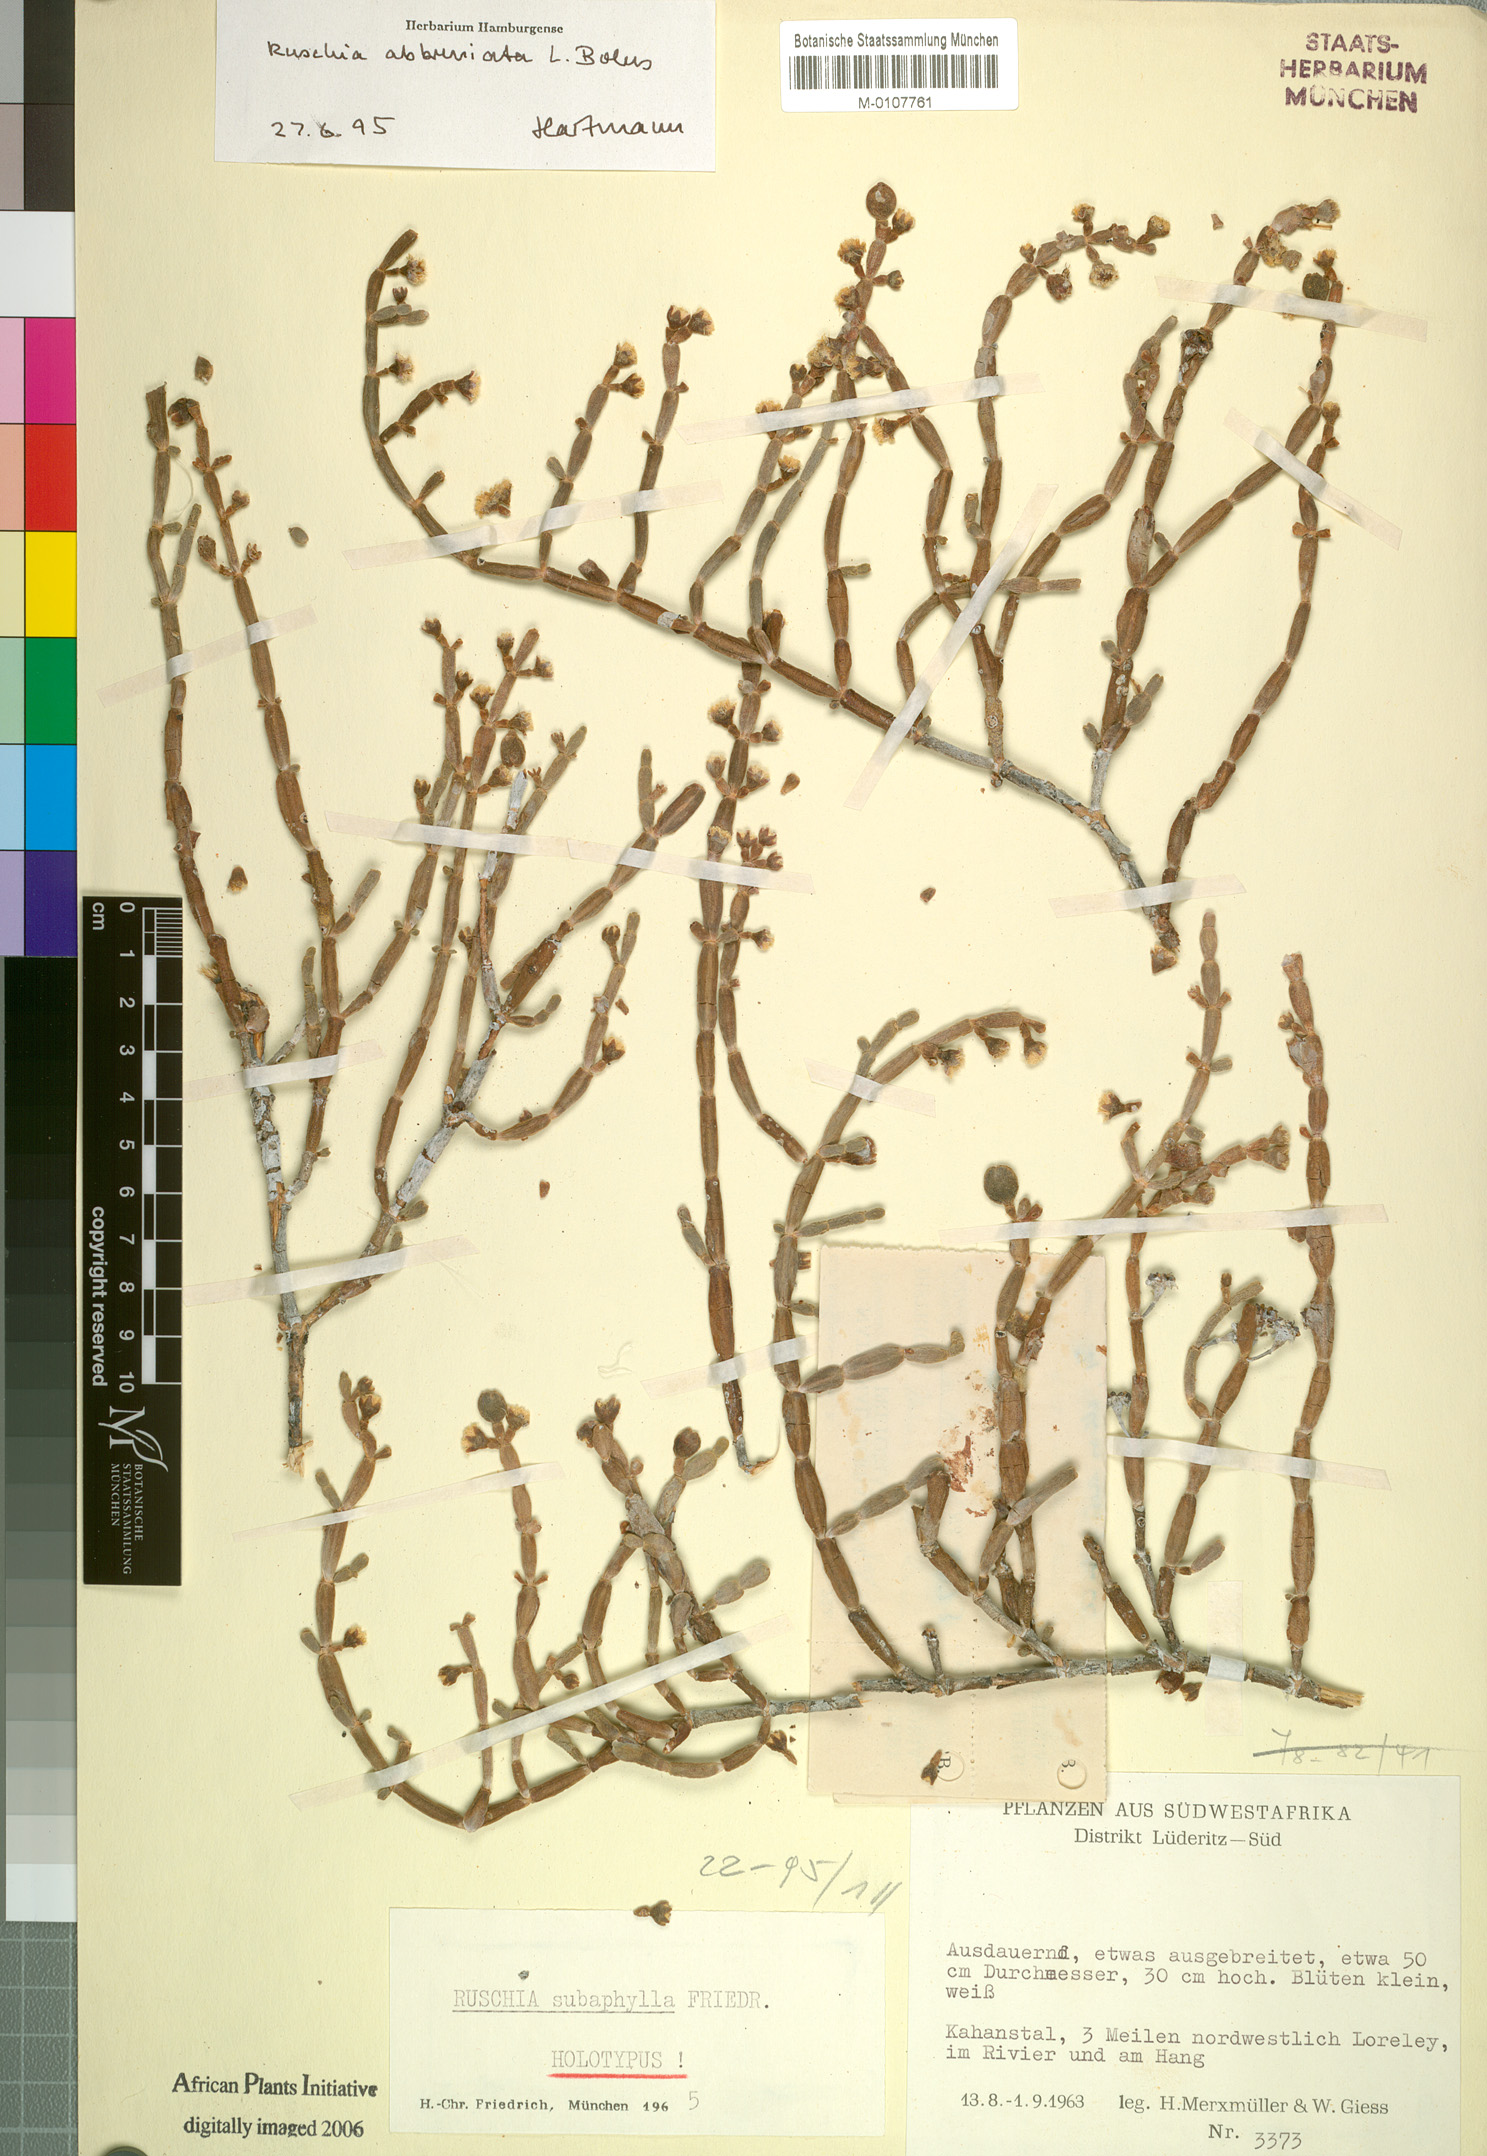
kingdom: Plantae
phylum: Tracheophyta
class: Magnoliopsida
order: Caryophyllales
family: Aizoaceae
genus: Ruschia
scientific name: Ruschia abbreviata
